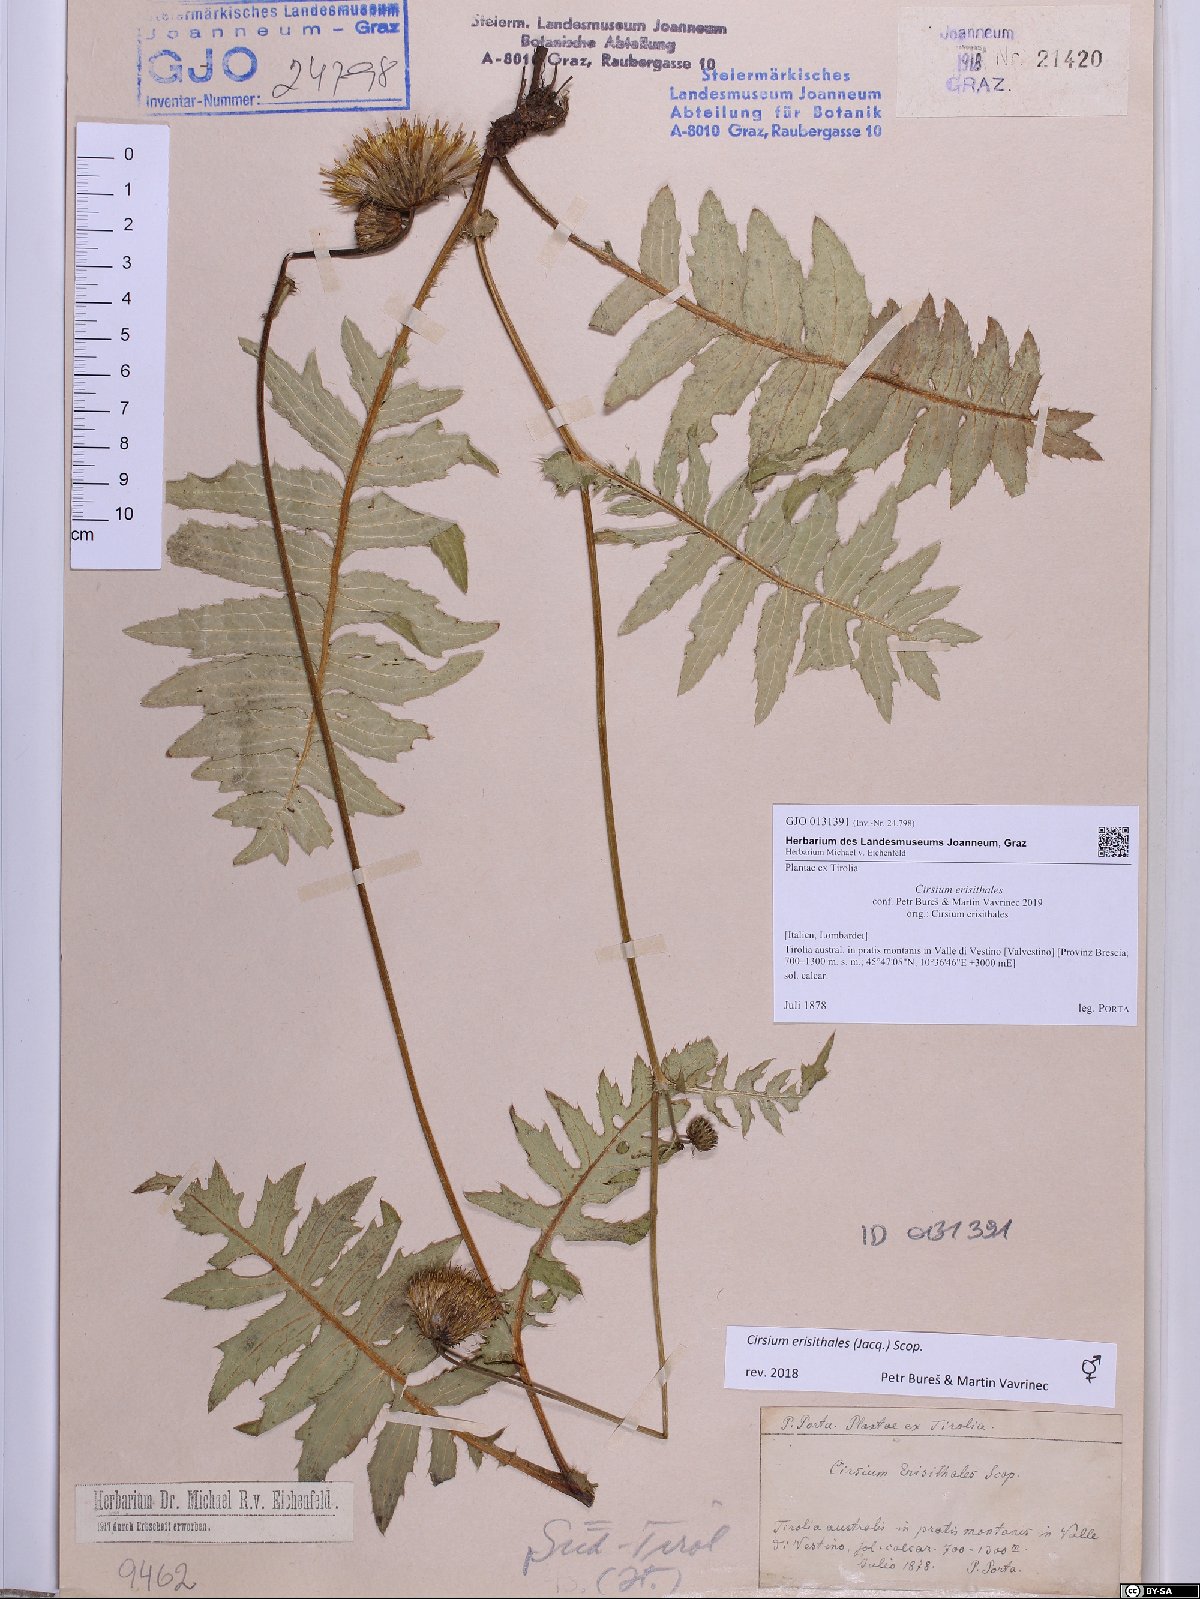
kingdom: Plantae
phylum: Tracheophyta
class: Magnoliopsida
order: Asterales
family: Asteraceae
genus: Cirsium
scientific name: Cirsium erisithales
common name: Yellow thistle
